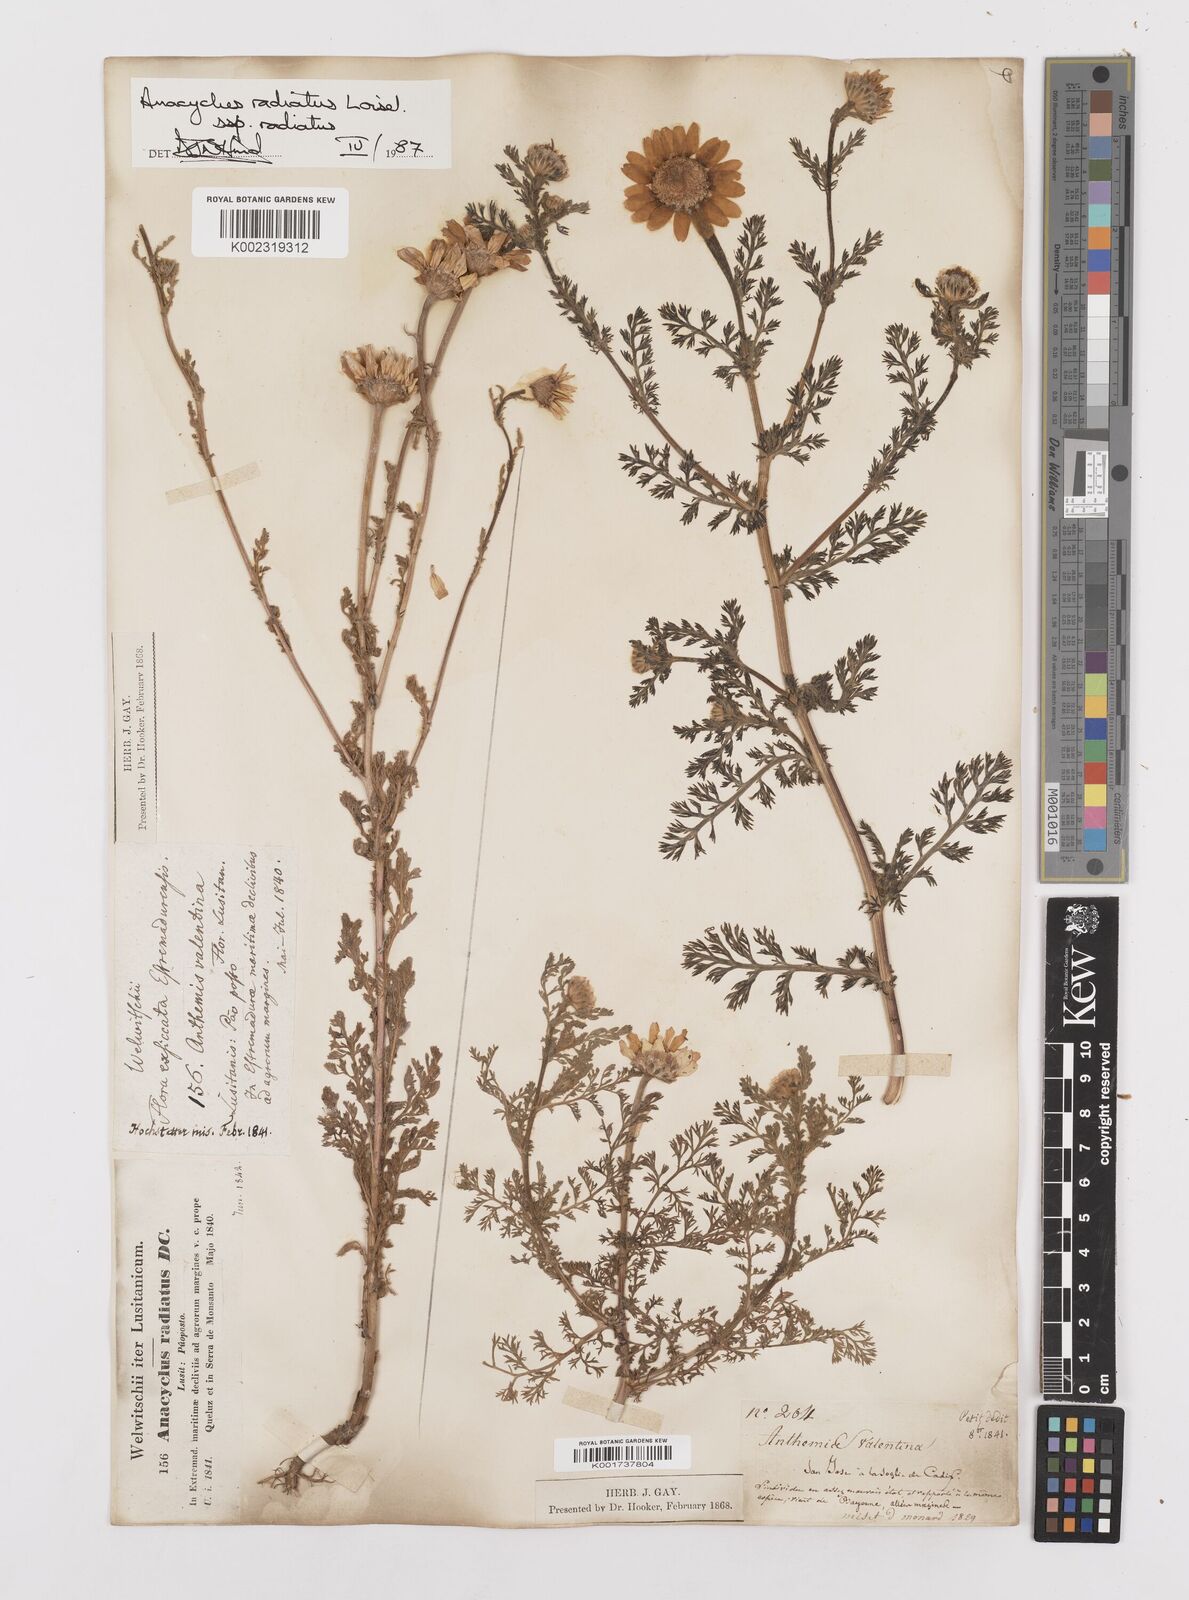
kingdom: Plantae
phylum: Tracheophyta
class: Magnoliopsida
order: Asterales
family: Asteraceae
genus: Anacyclus
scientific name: Anacyclus radiatus
